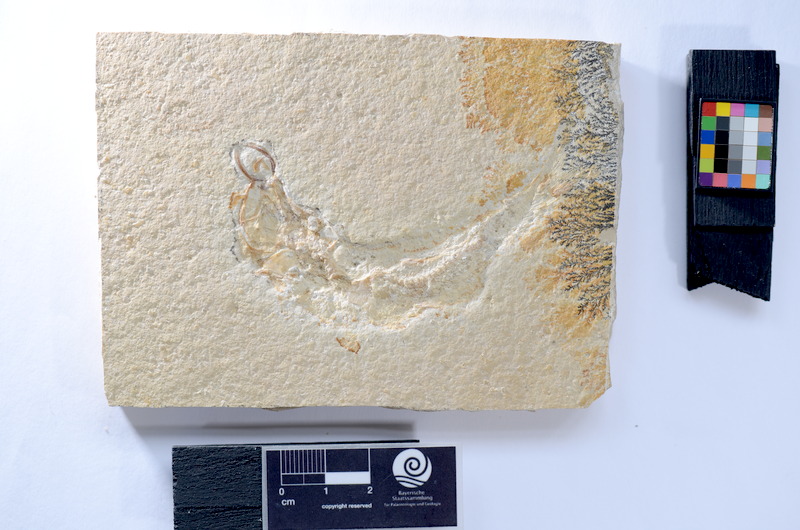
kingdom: Animalia
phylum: Chordata
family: Ascalaboidae
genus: Ascalabos
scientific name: Ascalabos voithii
